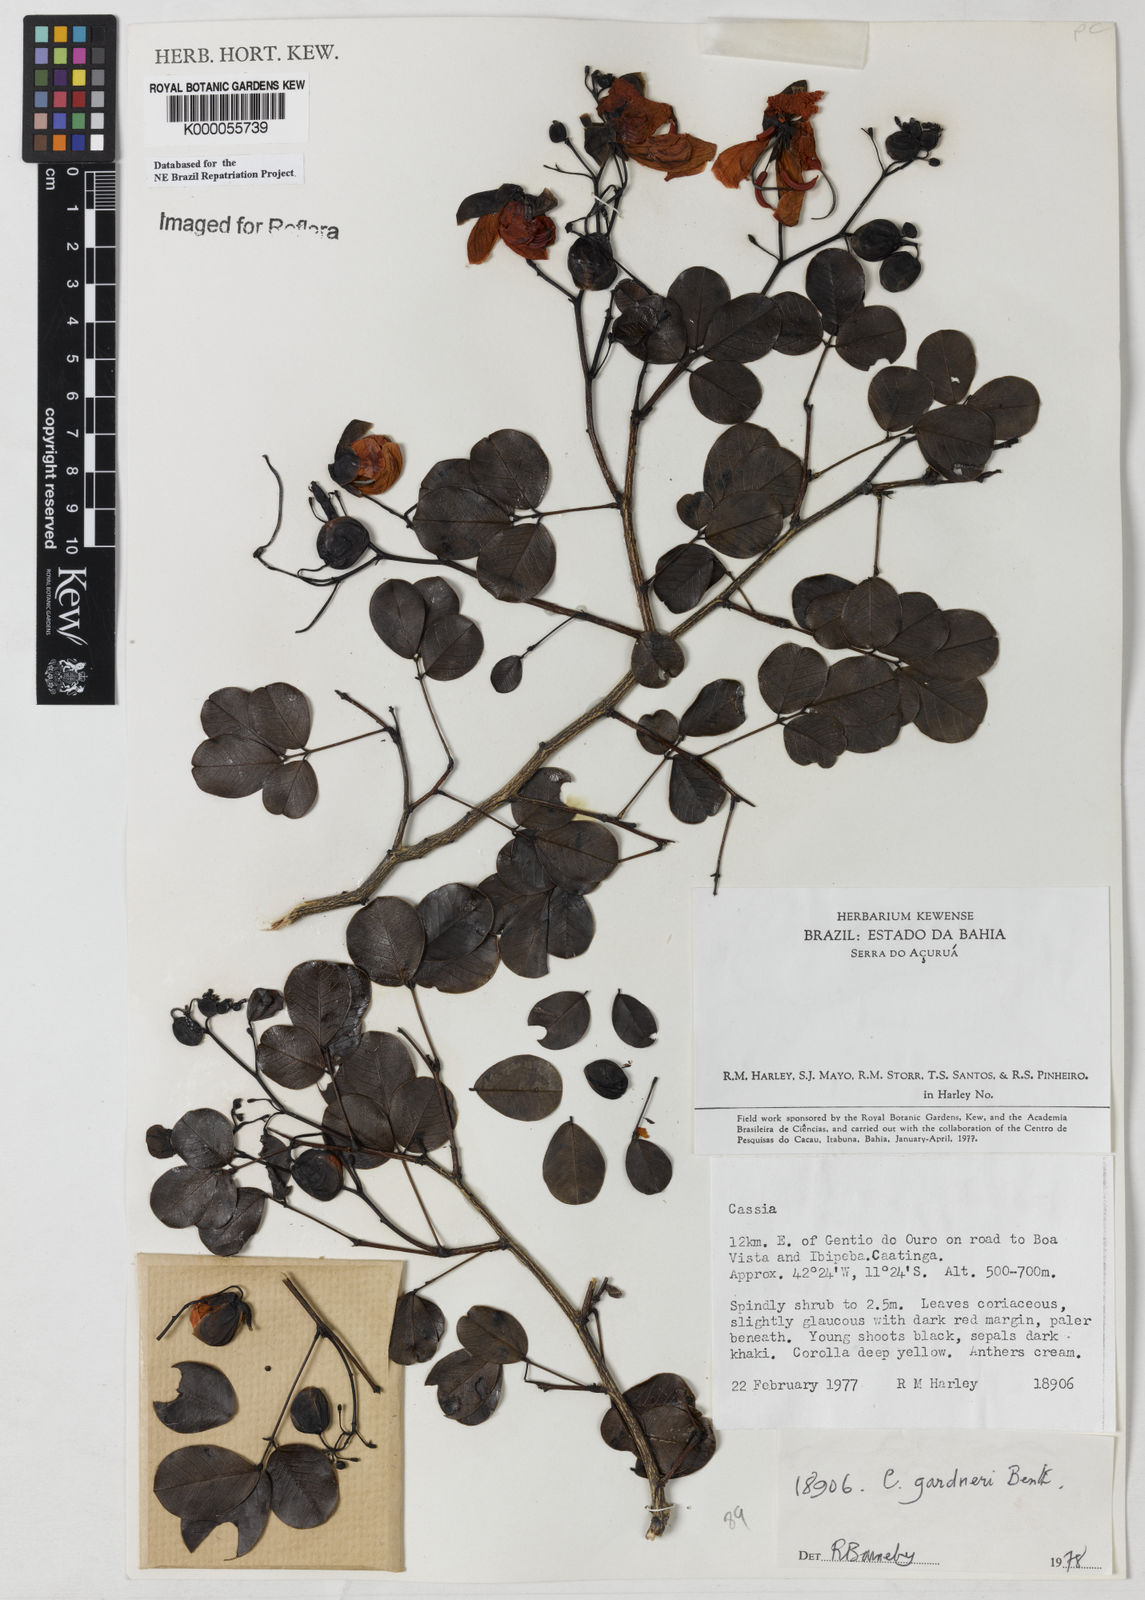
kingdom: Plantae
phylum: Tracheophyta
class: Magnoliopsida
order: Fabales
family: Fabaceae
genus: Senna
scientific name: Senna gardneri
